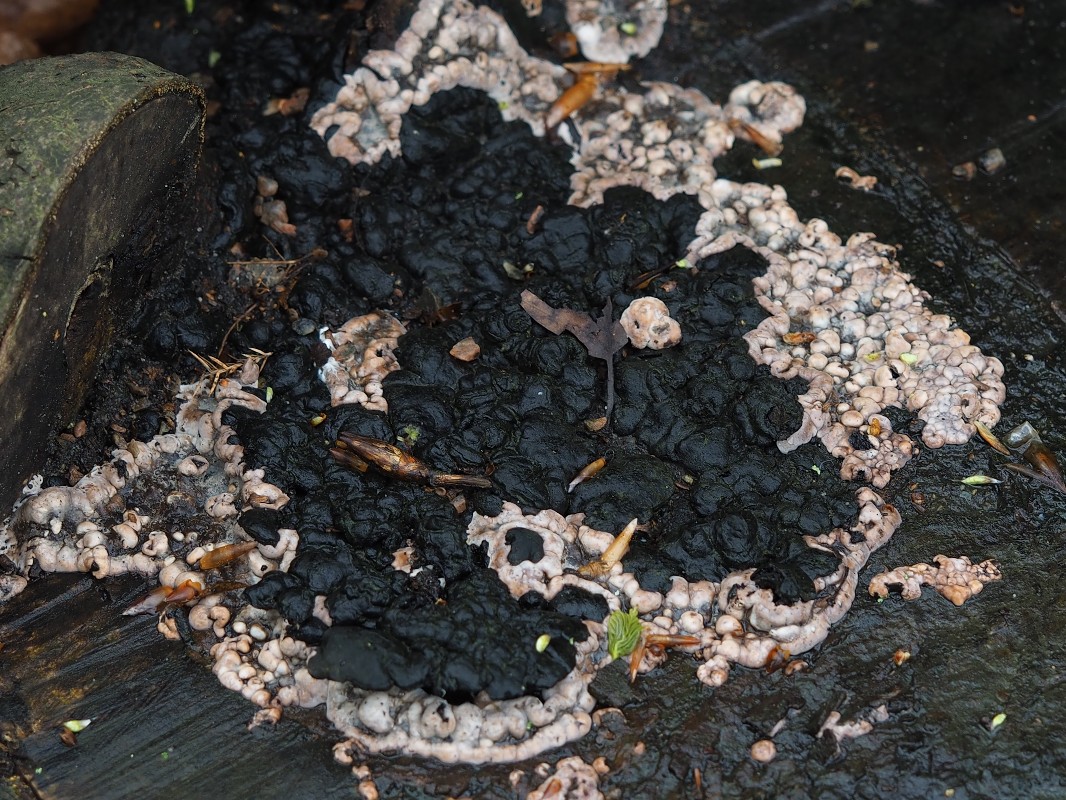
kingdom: Fungi
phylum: Ascomycota
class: Sordariomycetes
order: Xylariales
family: Xylariaceae
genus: Kretzschmaria
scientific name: Kretzschmaria deusta
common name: stor kulsvamp
